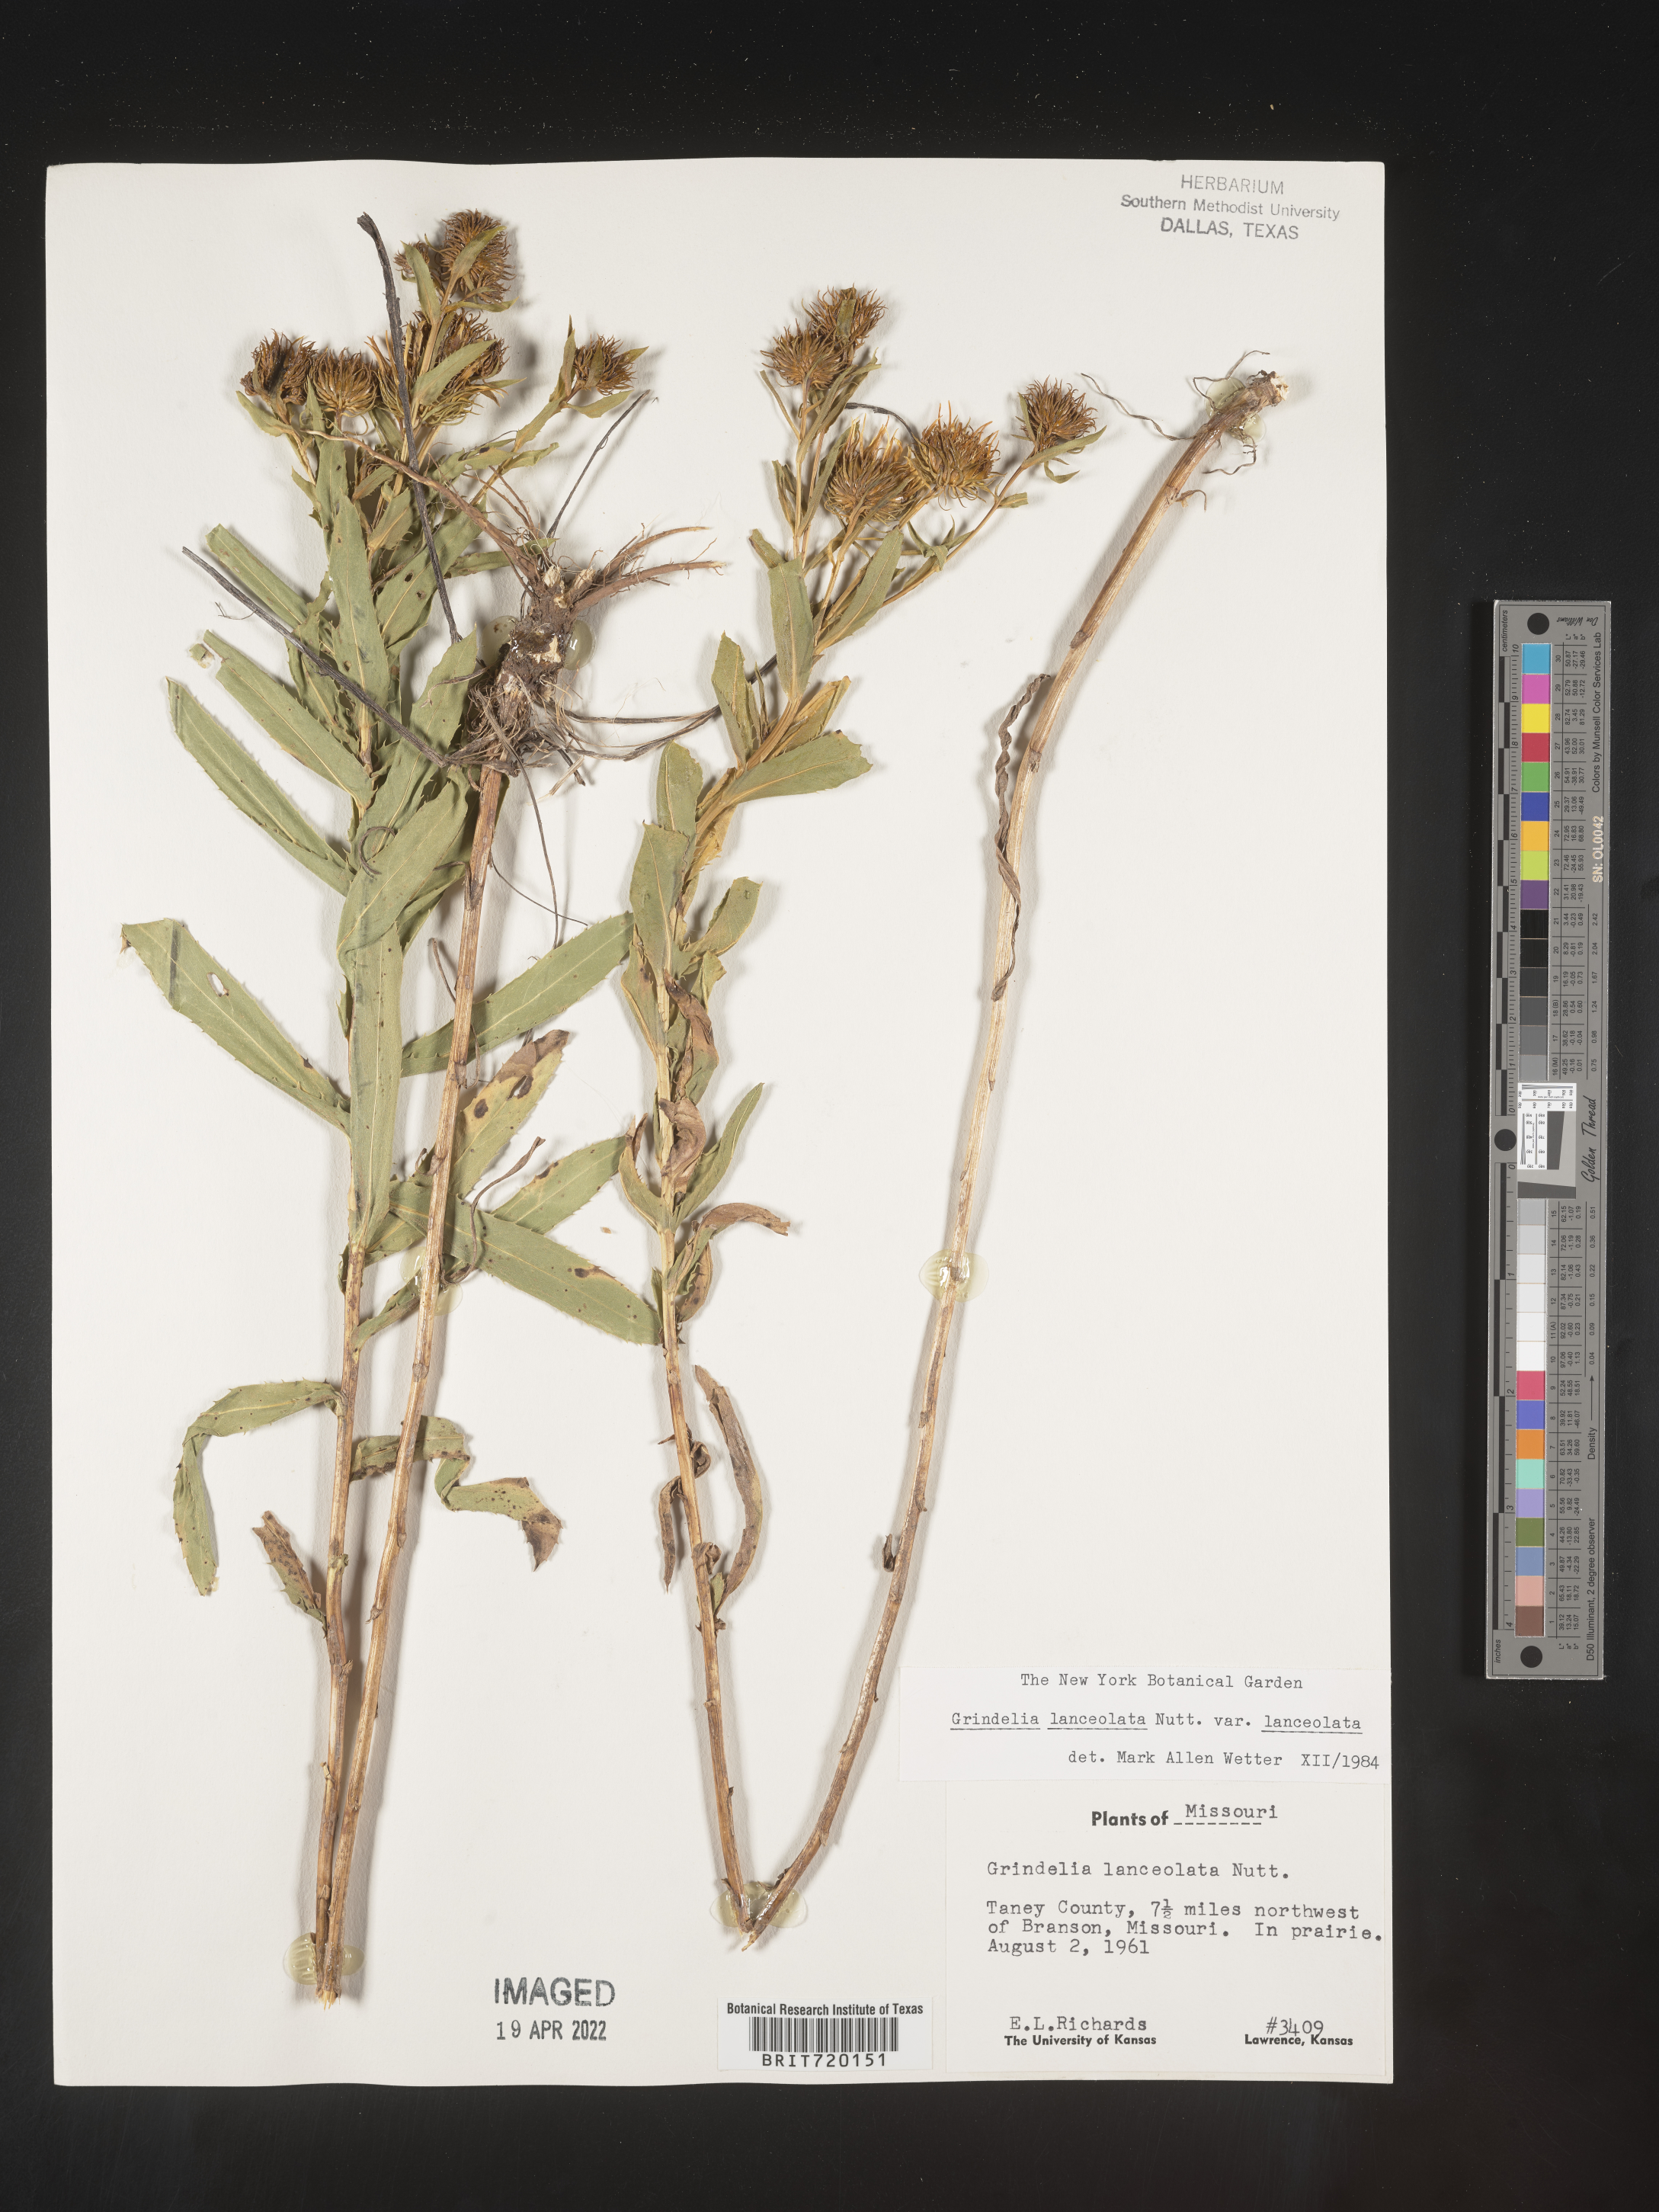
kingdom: Plantae
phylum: Tracheophyta
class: Magnoliopsida
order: Asterales
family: Asteraceae
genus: Grindelia
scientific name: Grindelia lanceolata
